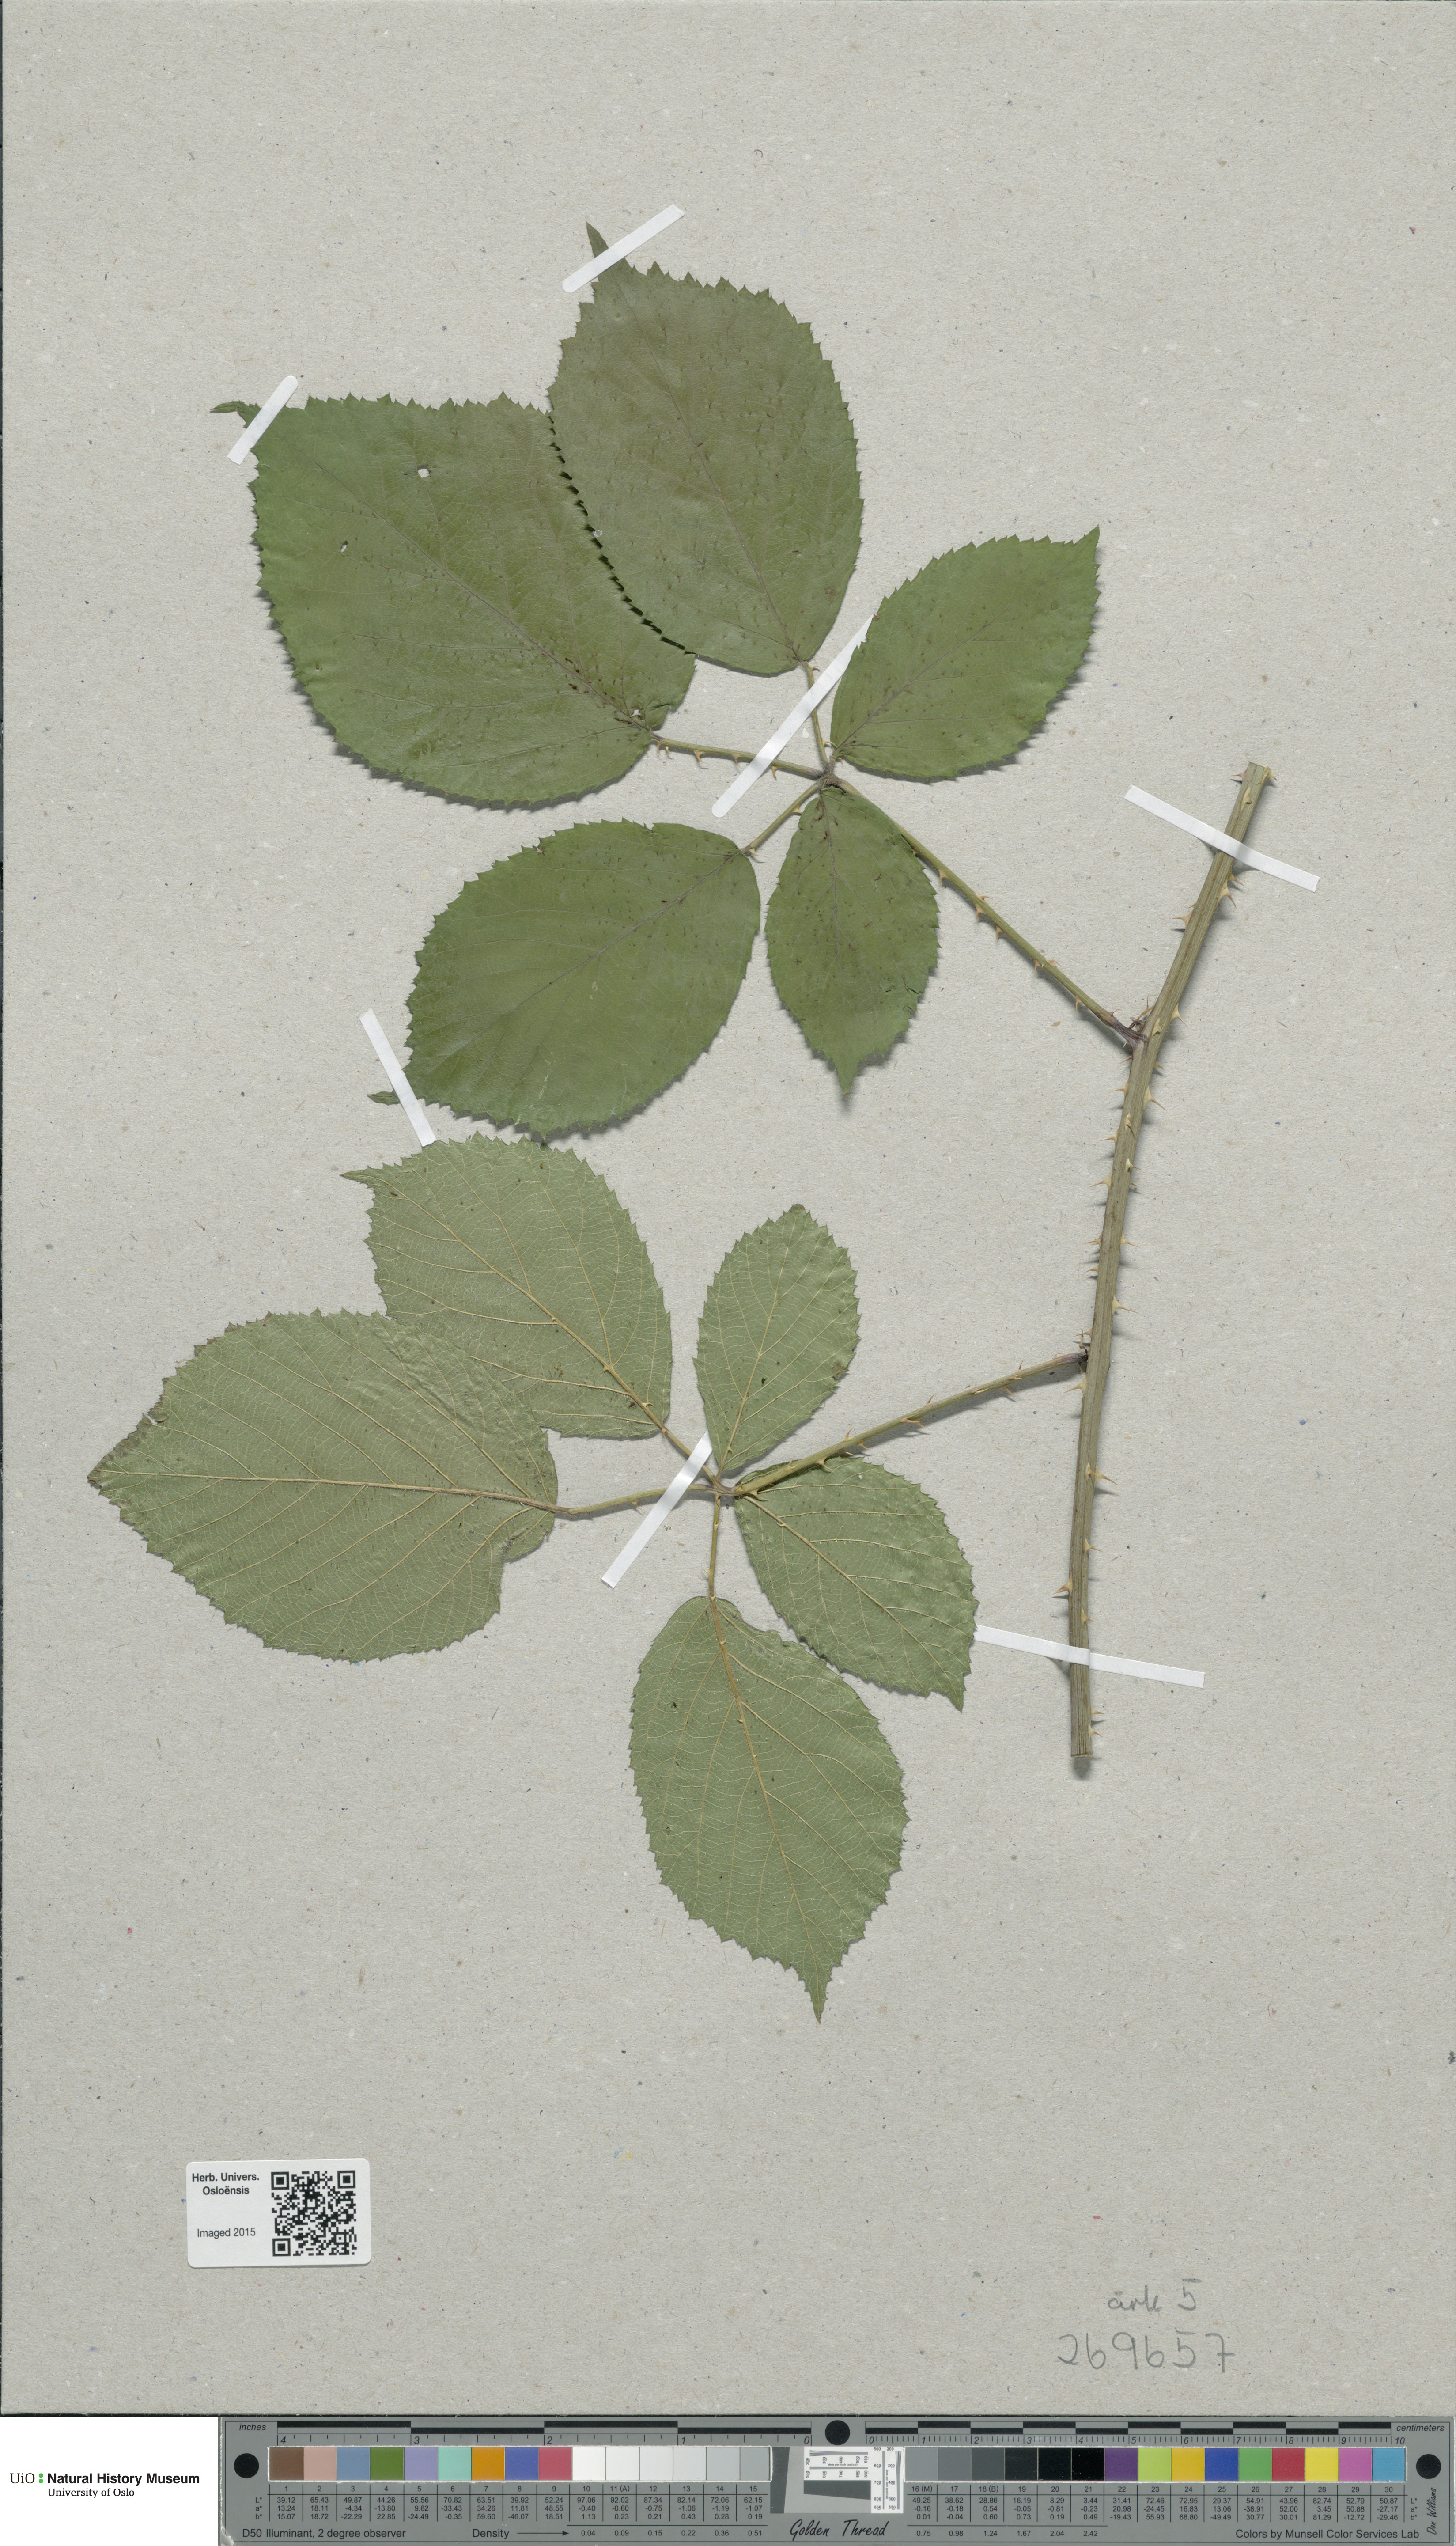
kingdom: Plantae
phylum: Tracheophyta
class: Magnoliopsida
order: Rosales
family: Rosaceae
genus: Rubus
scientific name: Rubus umbrosus
